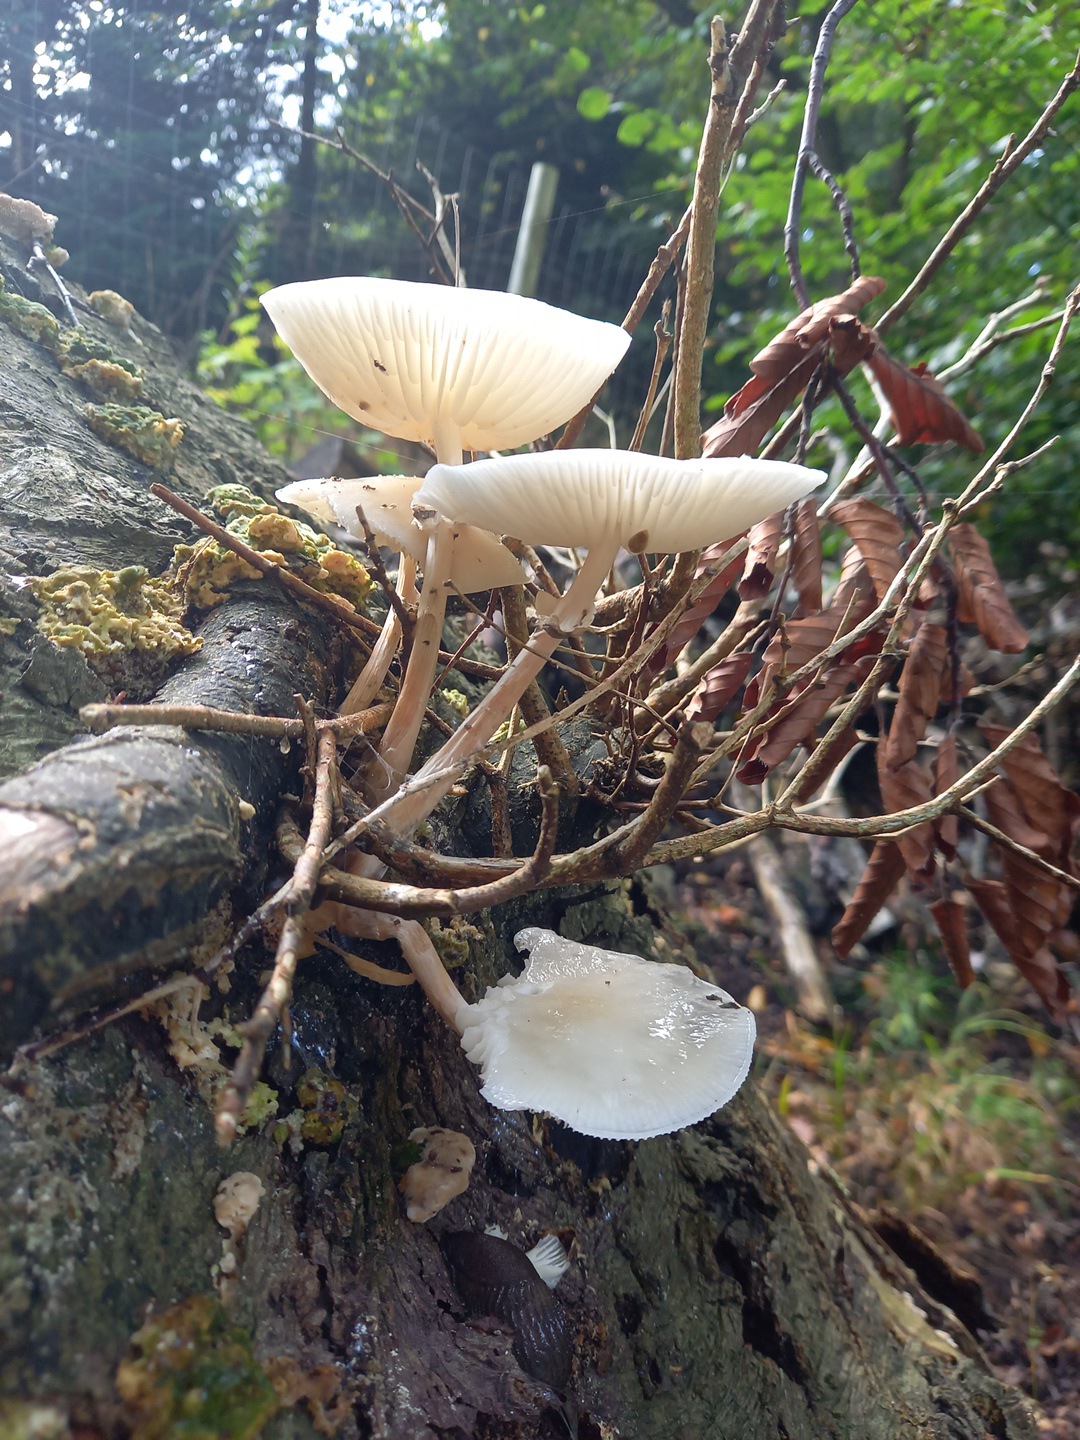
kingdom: Fungi
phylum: Basidiomycota
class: Agaricomycetes
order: Agaricales
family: Physalacriaceae
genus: Mucidula
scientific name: Mucidula mucida
